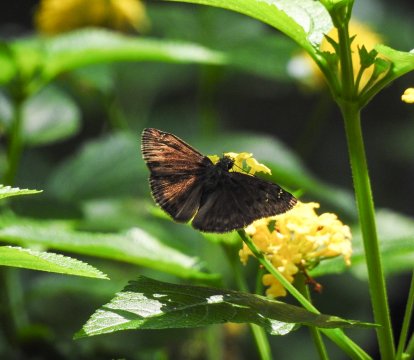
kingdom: Animalia
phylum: Arthropoda
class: Insecta
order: Lepidoptera
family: Hesperiidae
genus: Gesta
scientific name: Gesta
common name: Horace's Duskywing
